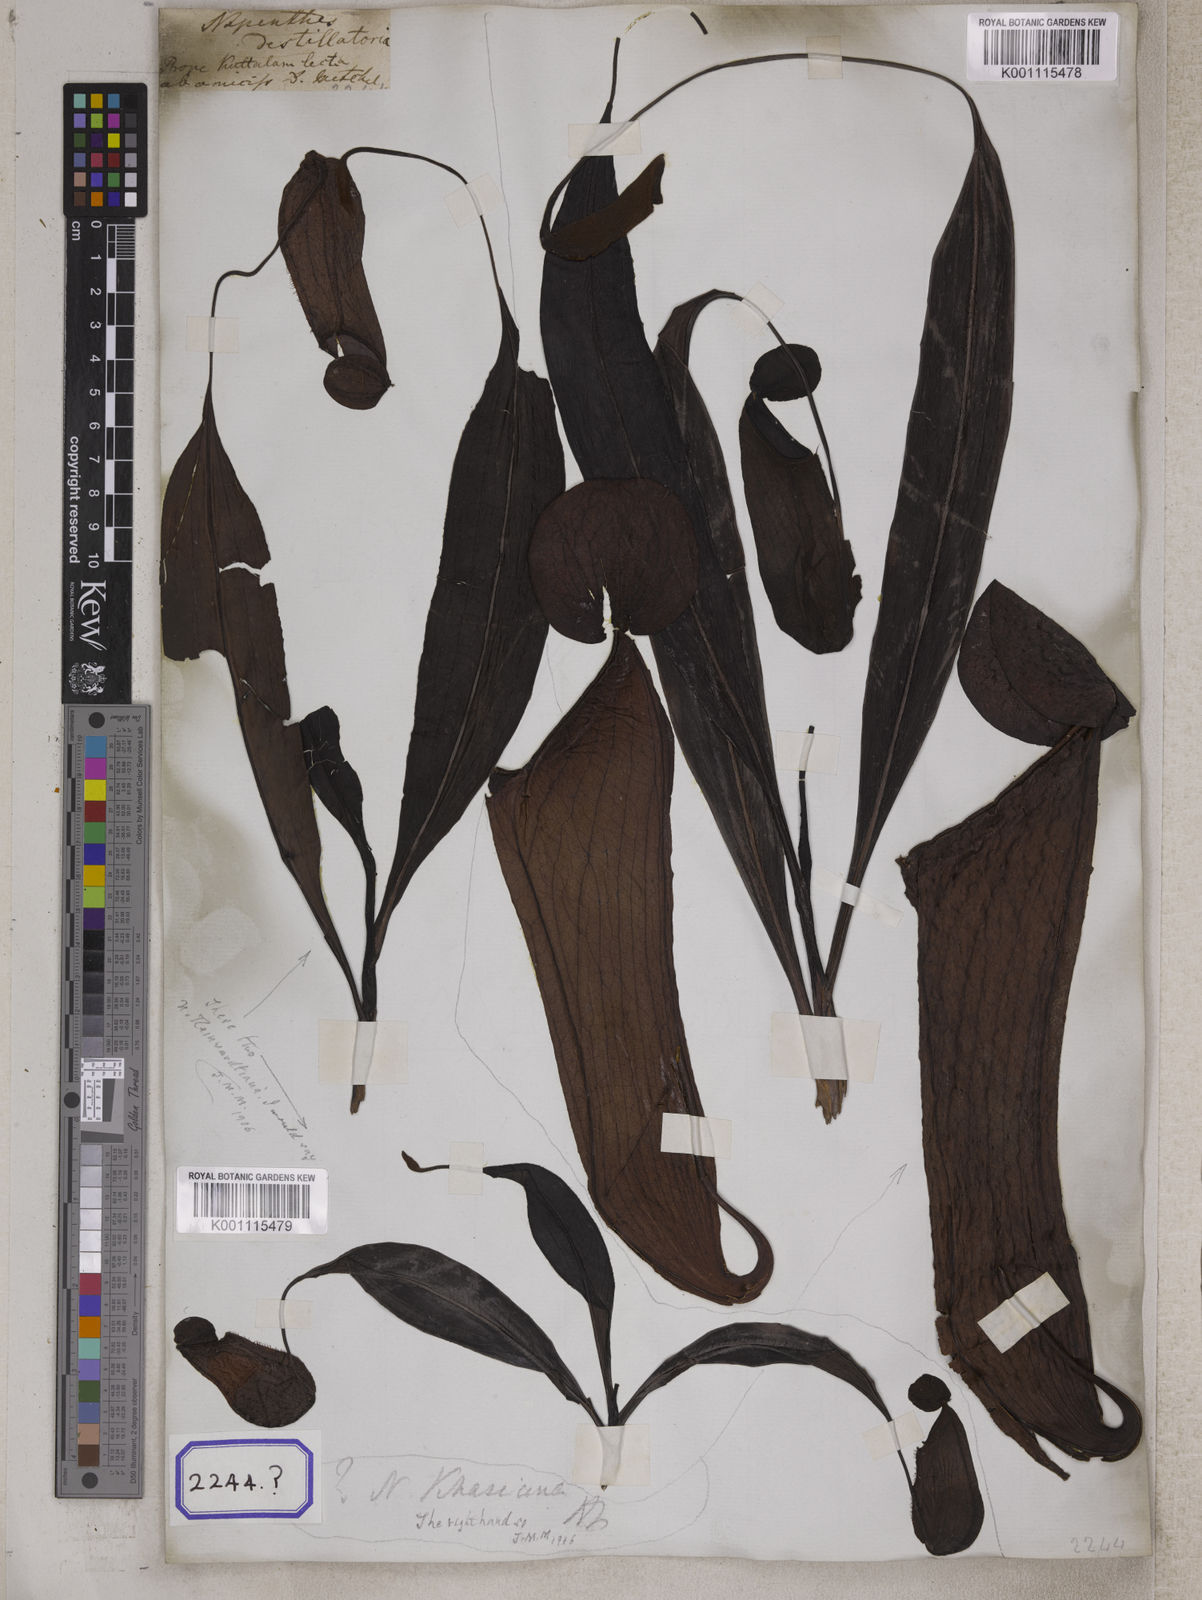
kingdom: Plantae
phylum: Tracheophyta
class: Magnoliopsida
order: Caryophyllales
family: Nepenthaceae
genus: Nepenthes
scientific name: Nepenthes distillatoria
